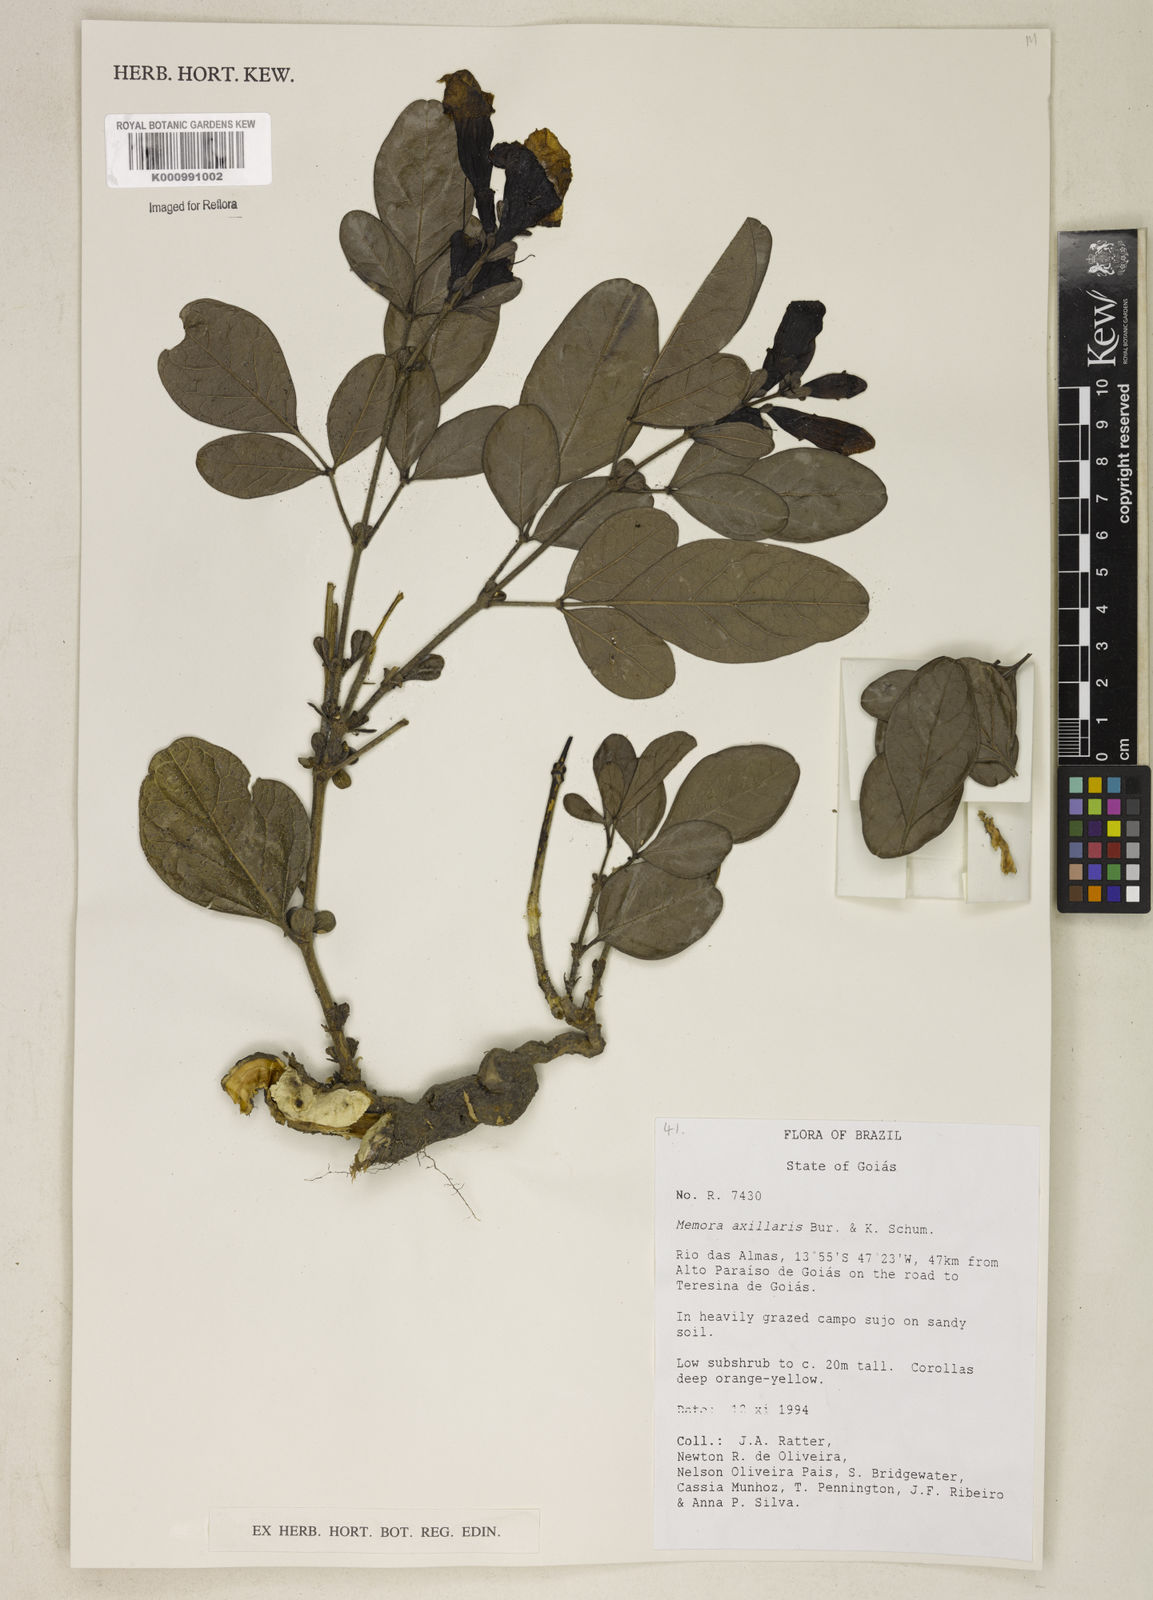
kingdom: Plantae
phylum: Tracheophyta
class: Magnoliopsida
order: Lamiales
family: Bignoniaceae
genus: Adenocalymma
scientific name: Adenocalymma axillare
